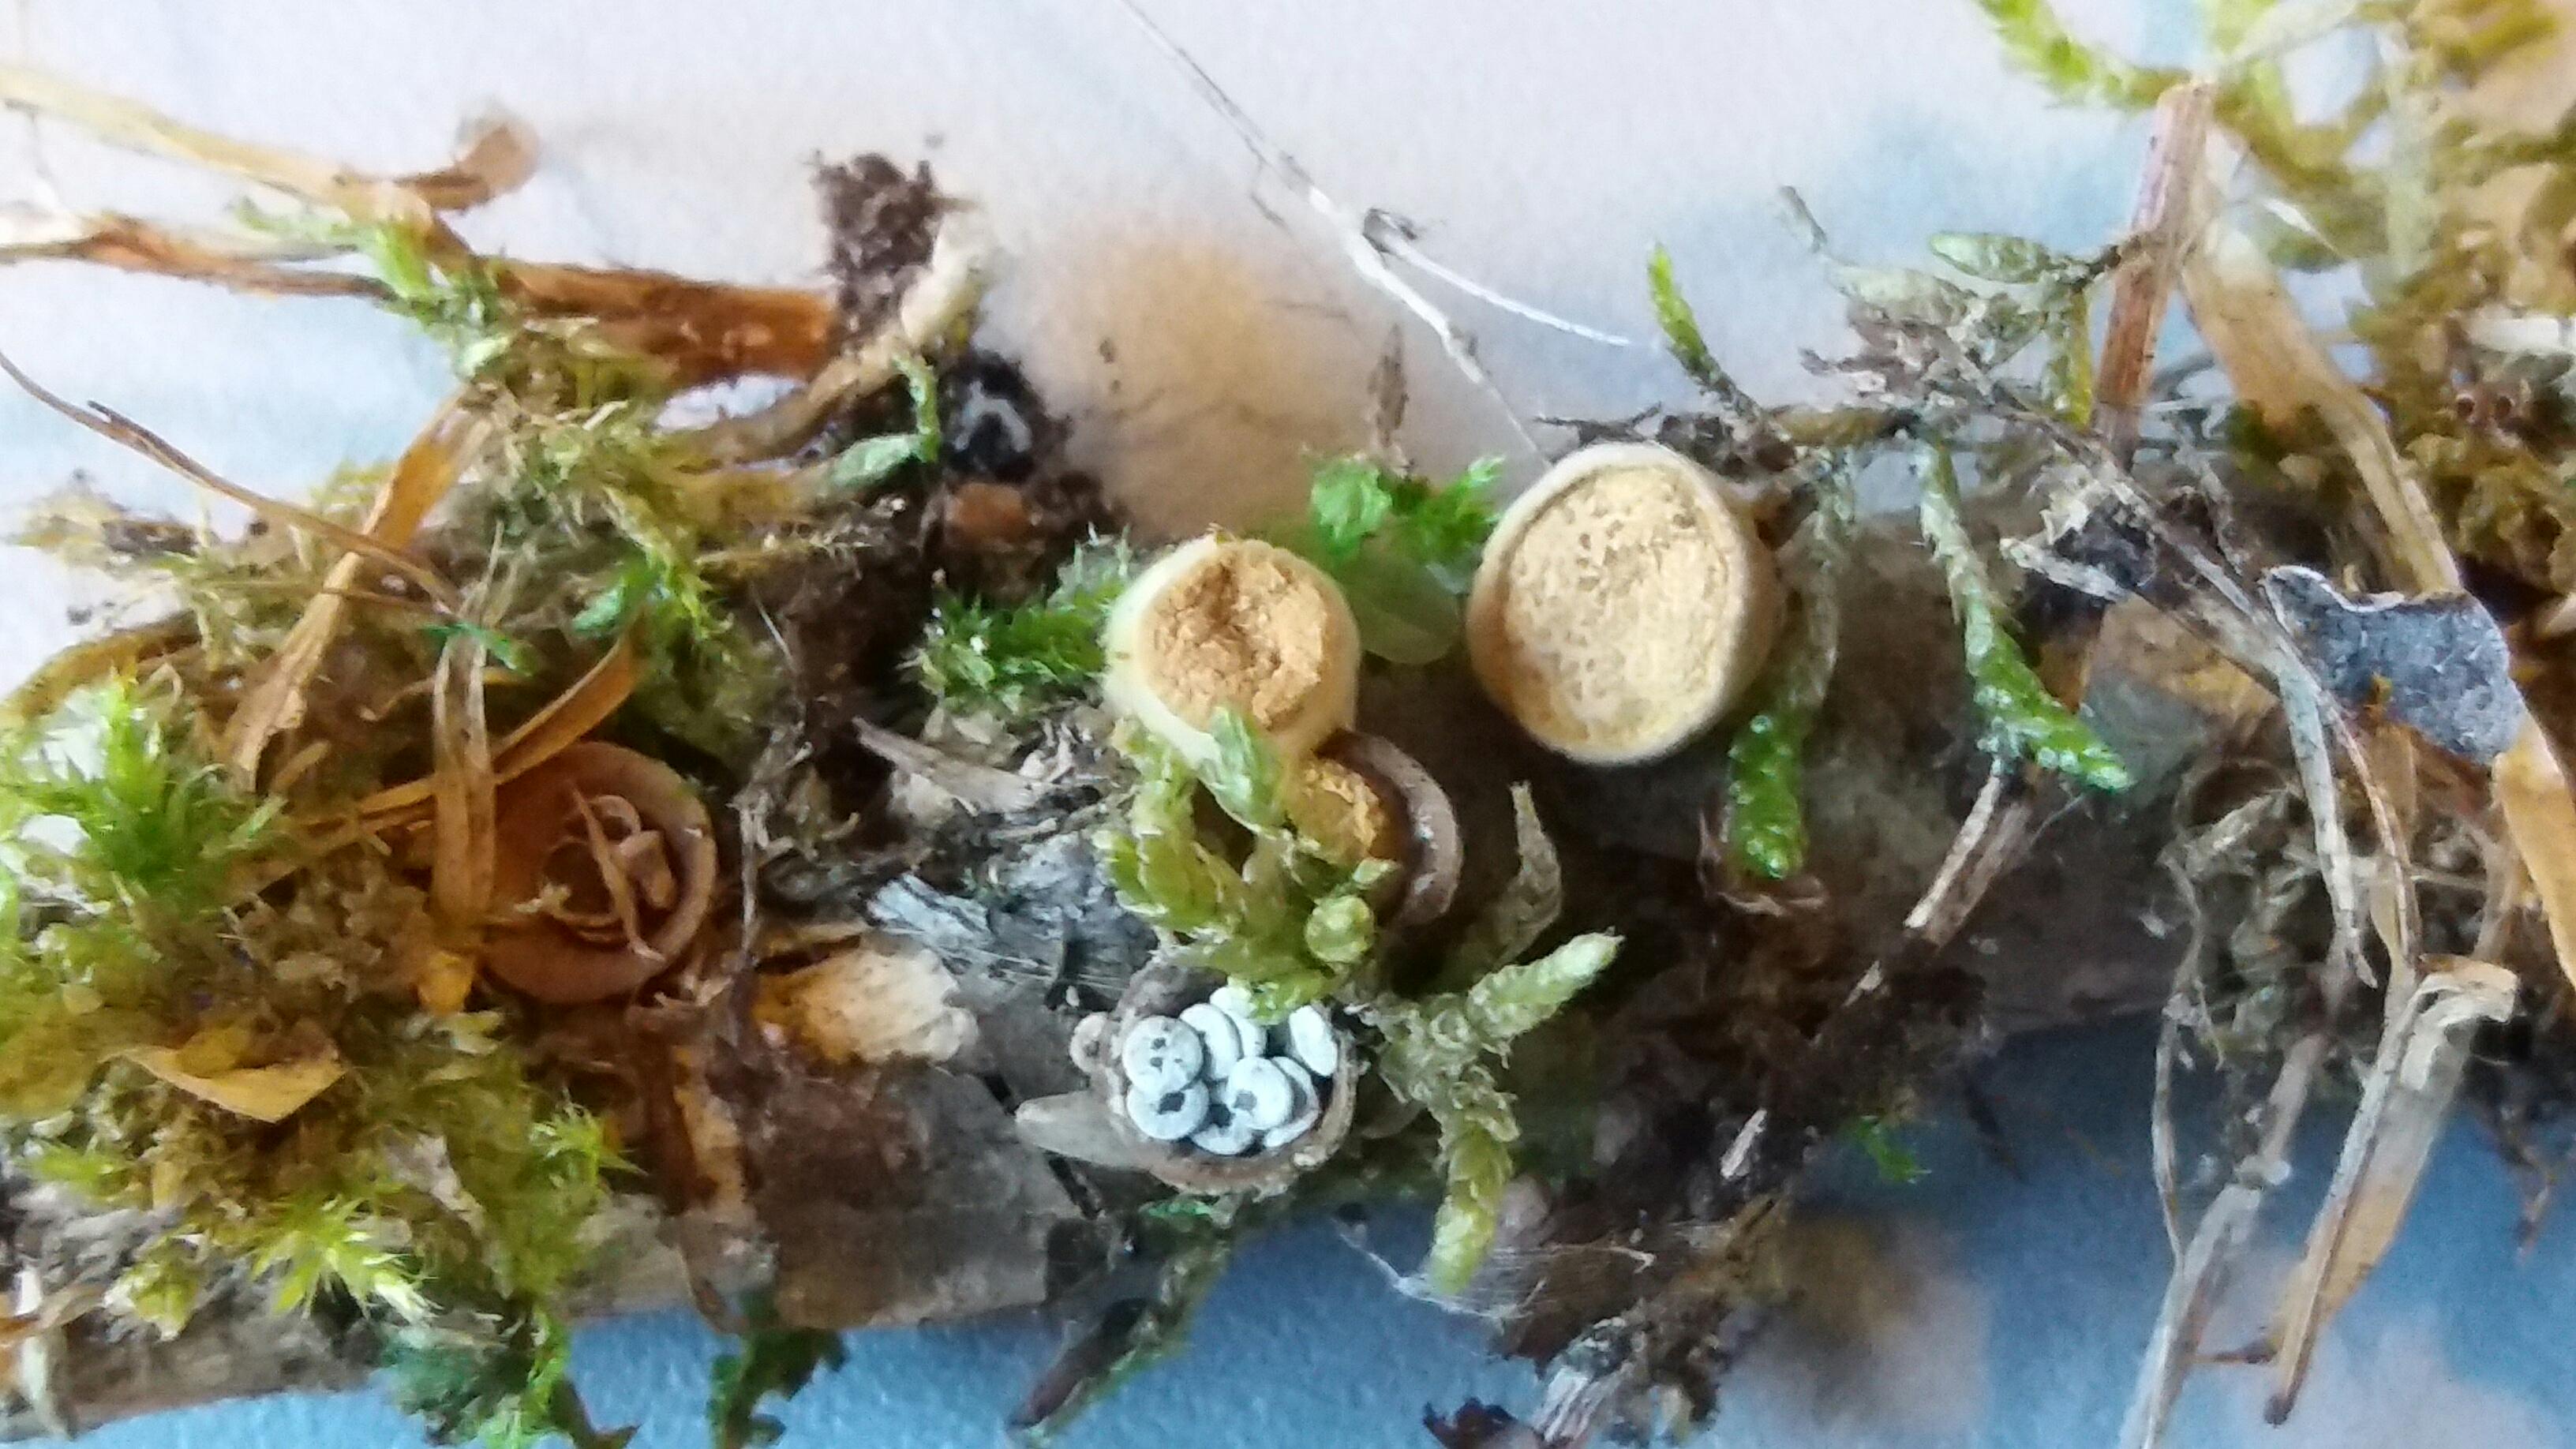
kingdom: Fungi
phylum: Basidiomycota
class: Agaricomycetes
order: Agaricales
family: Nidulariaceae
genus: Crucibulum
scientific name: Crucibulum crucibuliforme
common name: krukkesvamp
